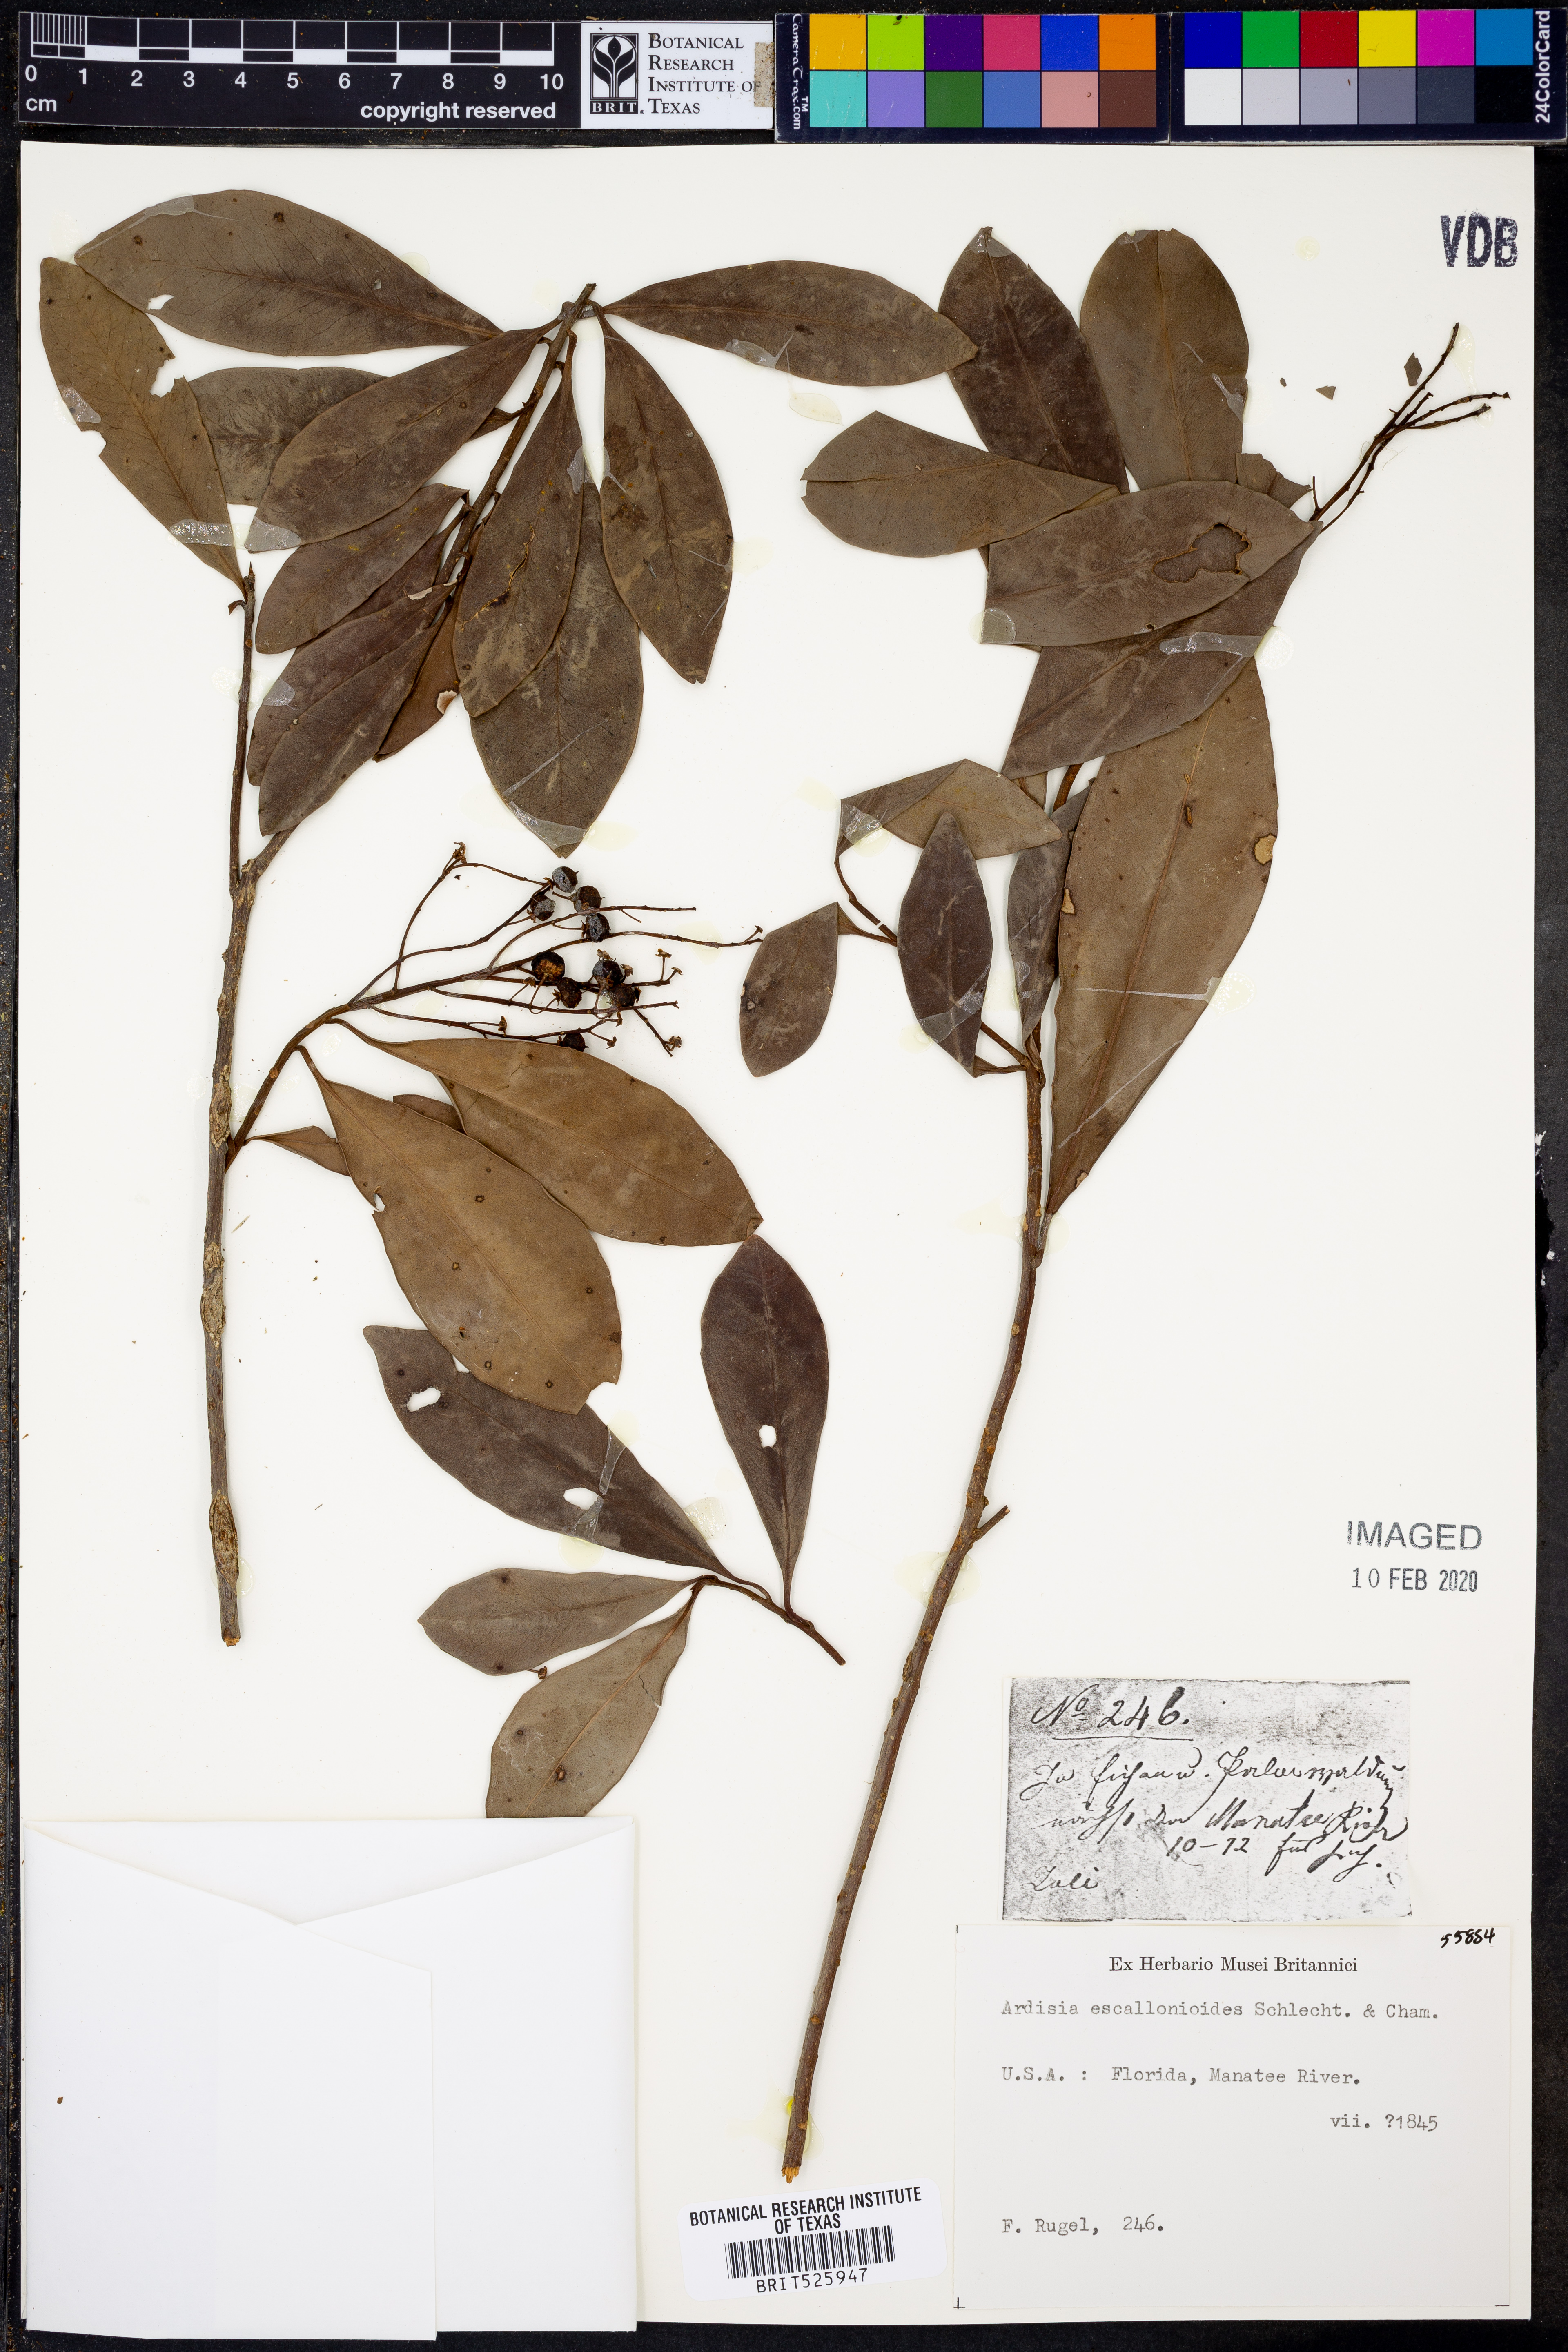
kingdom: Plantae
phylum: Tracheophyta
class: Magnoliopsida
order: Ericales
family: Primulaceae
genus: Ardisia
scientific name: Ardisia escallonioides
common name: Island marlberry
